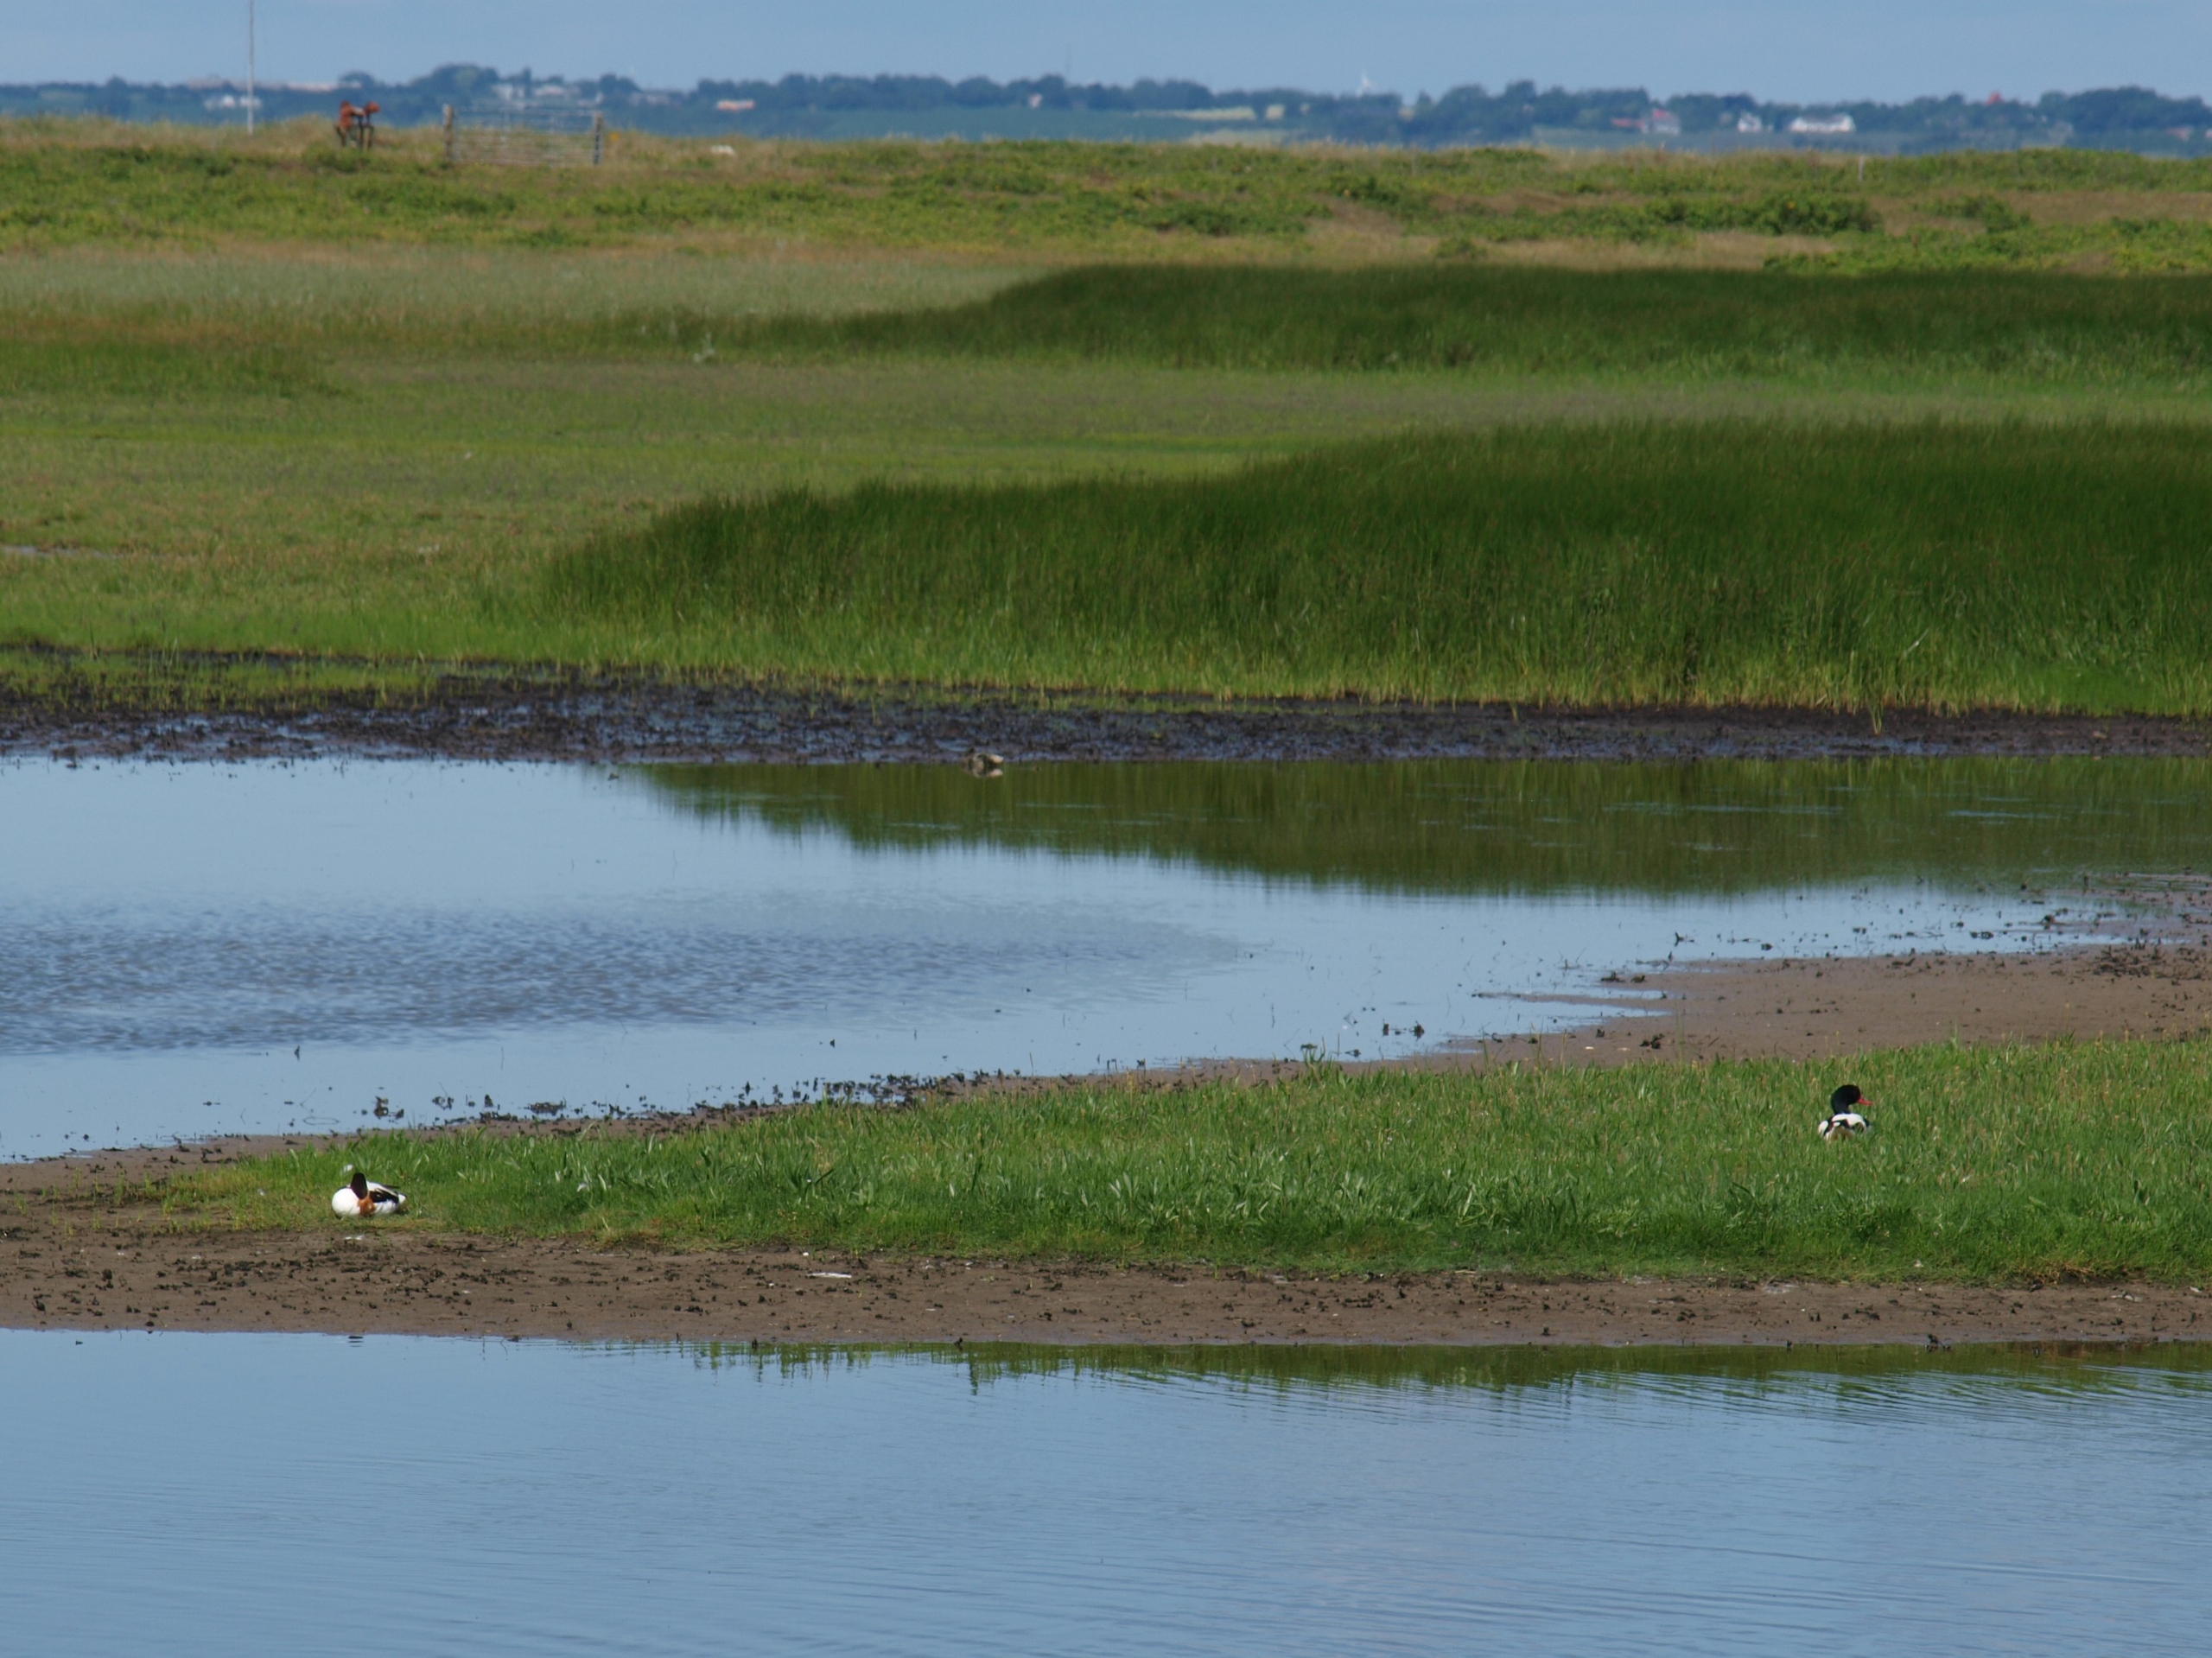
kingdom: Animalia
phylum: Chordata
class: Aves
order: Anseriformes
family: Anatidae
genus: Tadorna
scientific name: Tadorna tadorna
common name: Gravand
